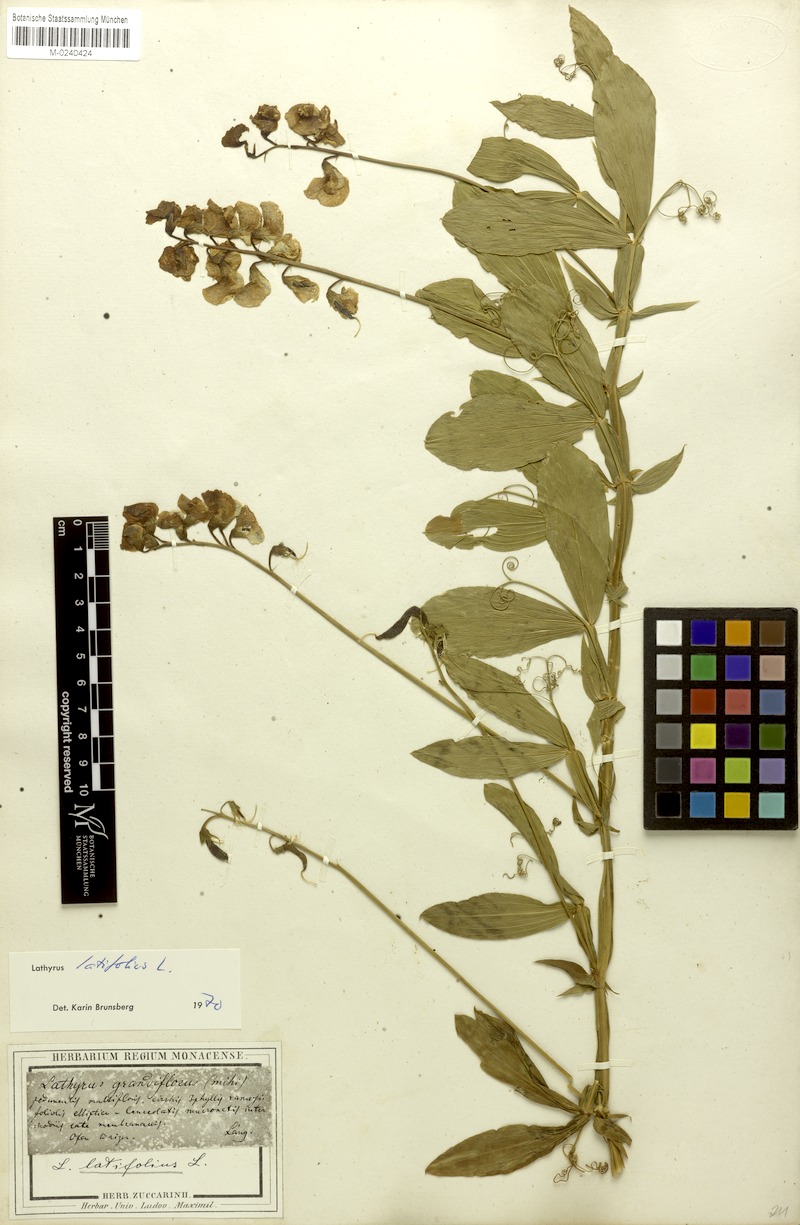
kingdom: Plantae
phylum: Tracheophyta
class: Magnoliopsida
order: Fabales
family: Fabaceae
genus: Lathyrus
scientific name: Lathyrus latifolius
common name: Perennial pea
